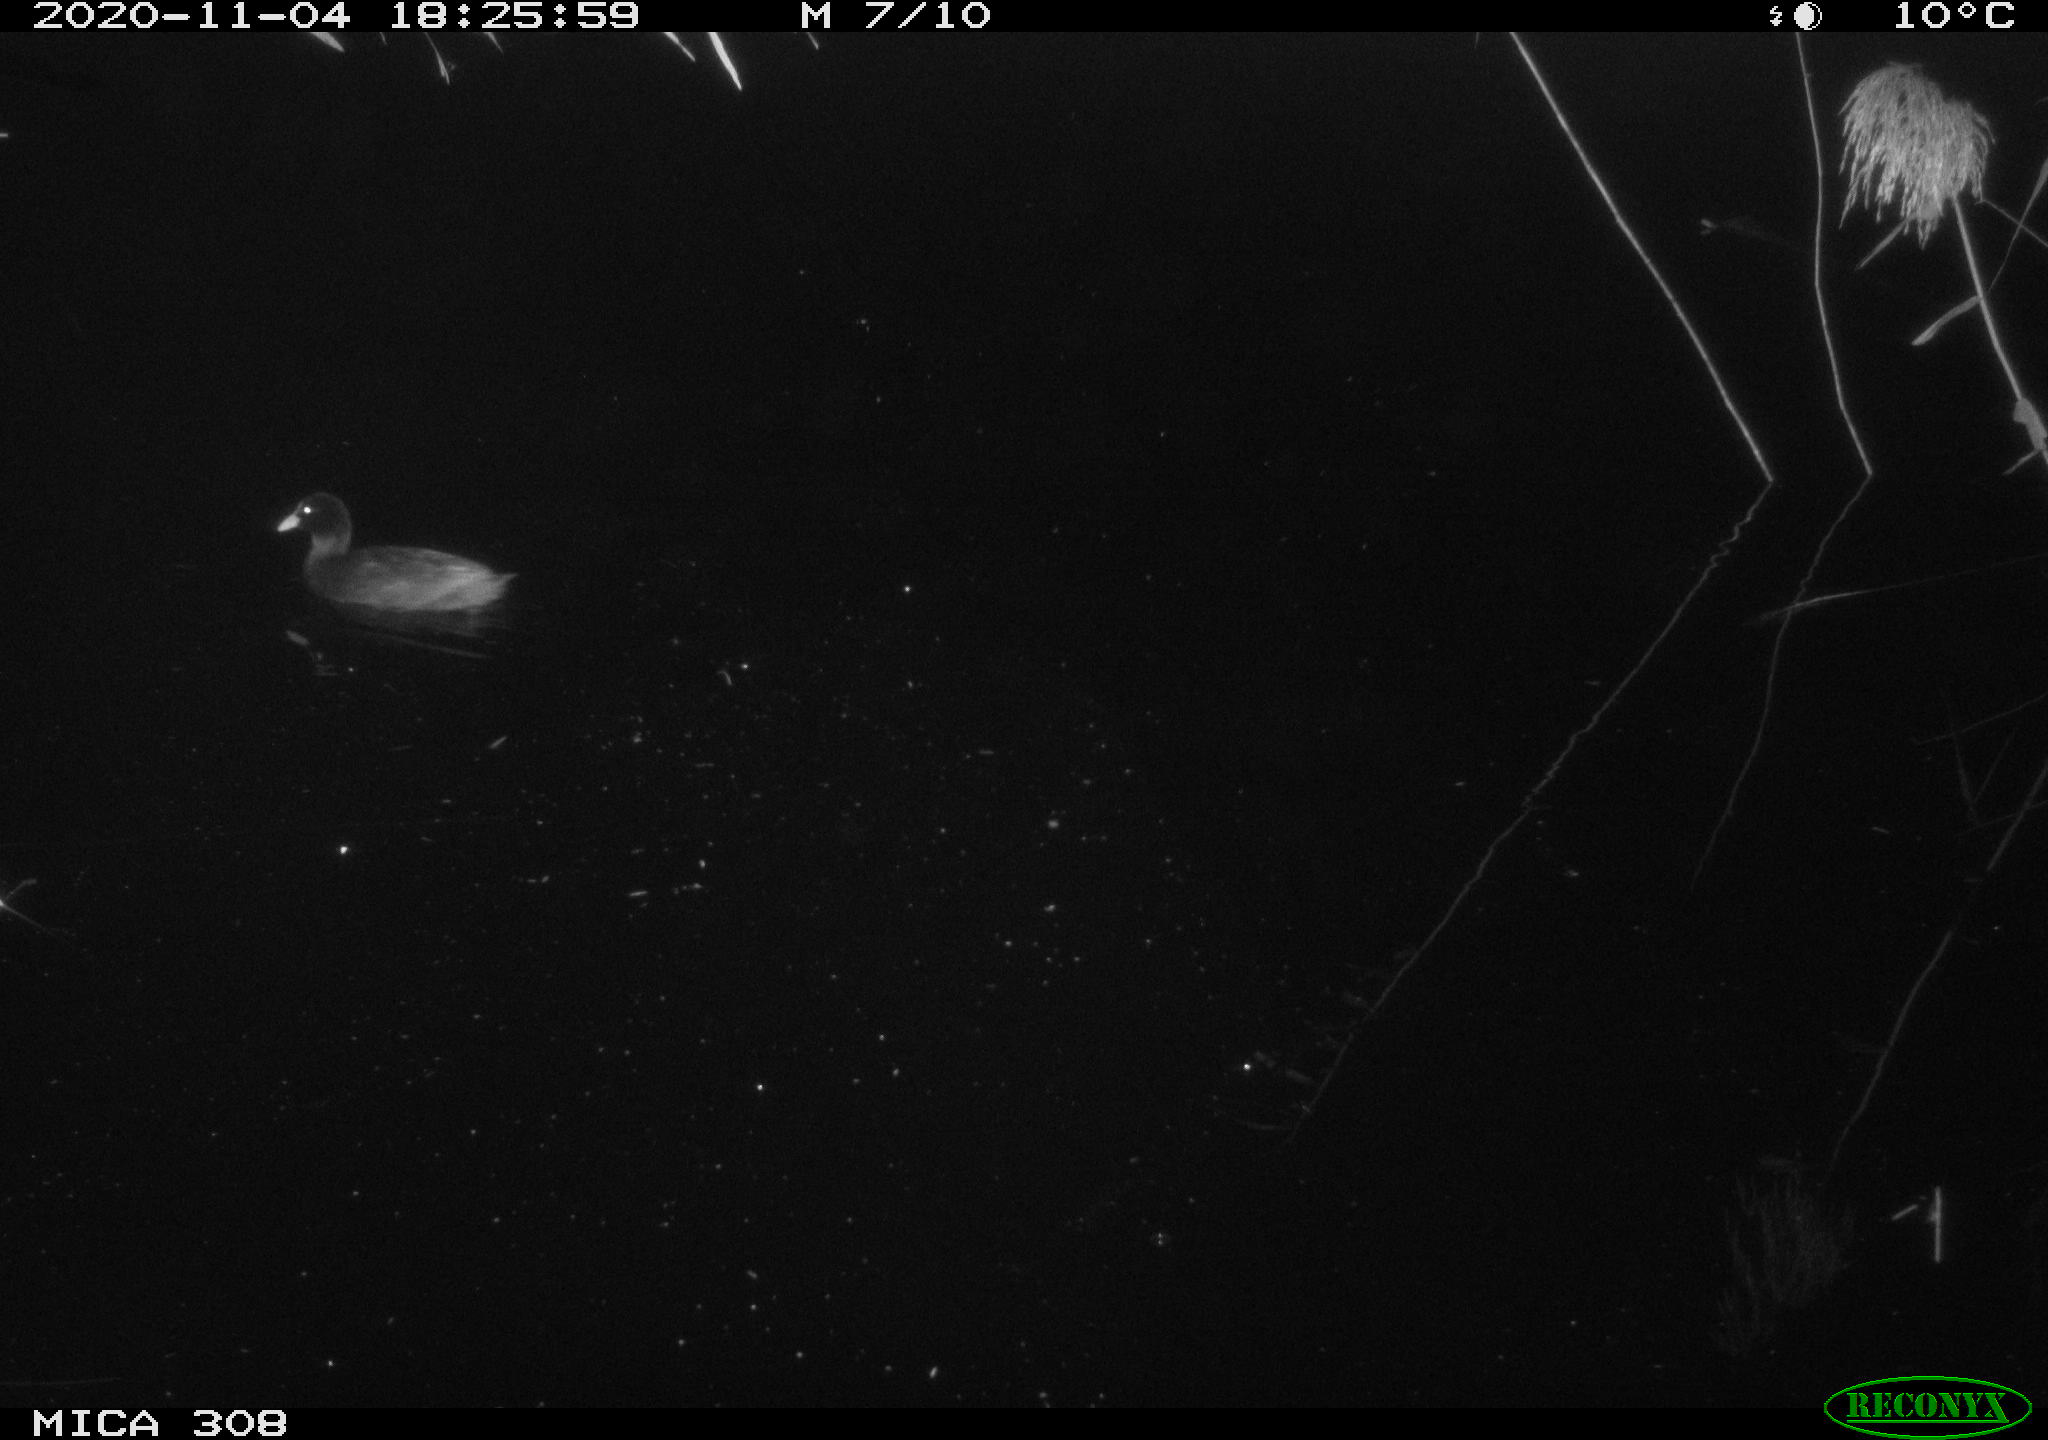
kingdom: Animalia
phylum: Chordata
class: Aves
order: Gruiformes
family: Rallidae
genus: Fulica
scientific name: Fulica atra
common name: Eurasian coot
